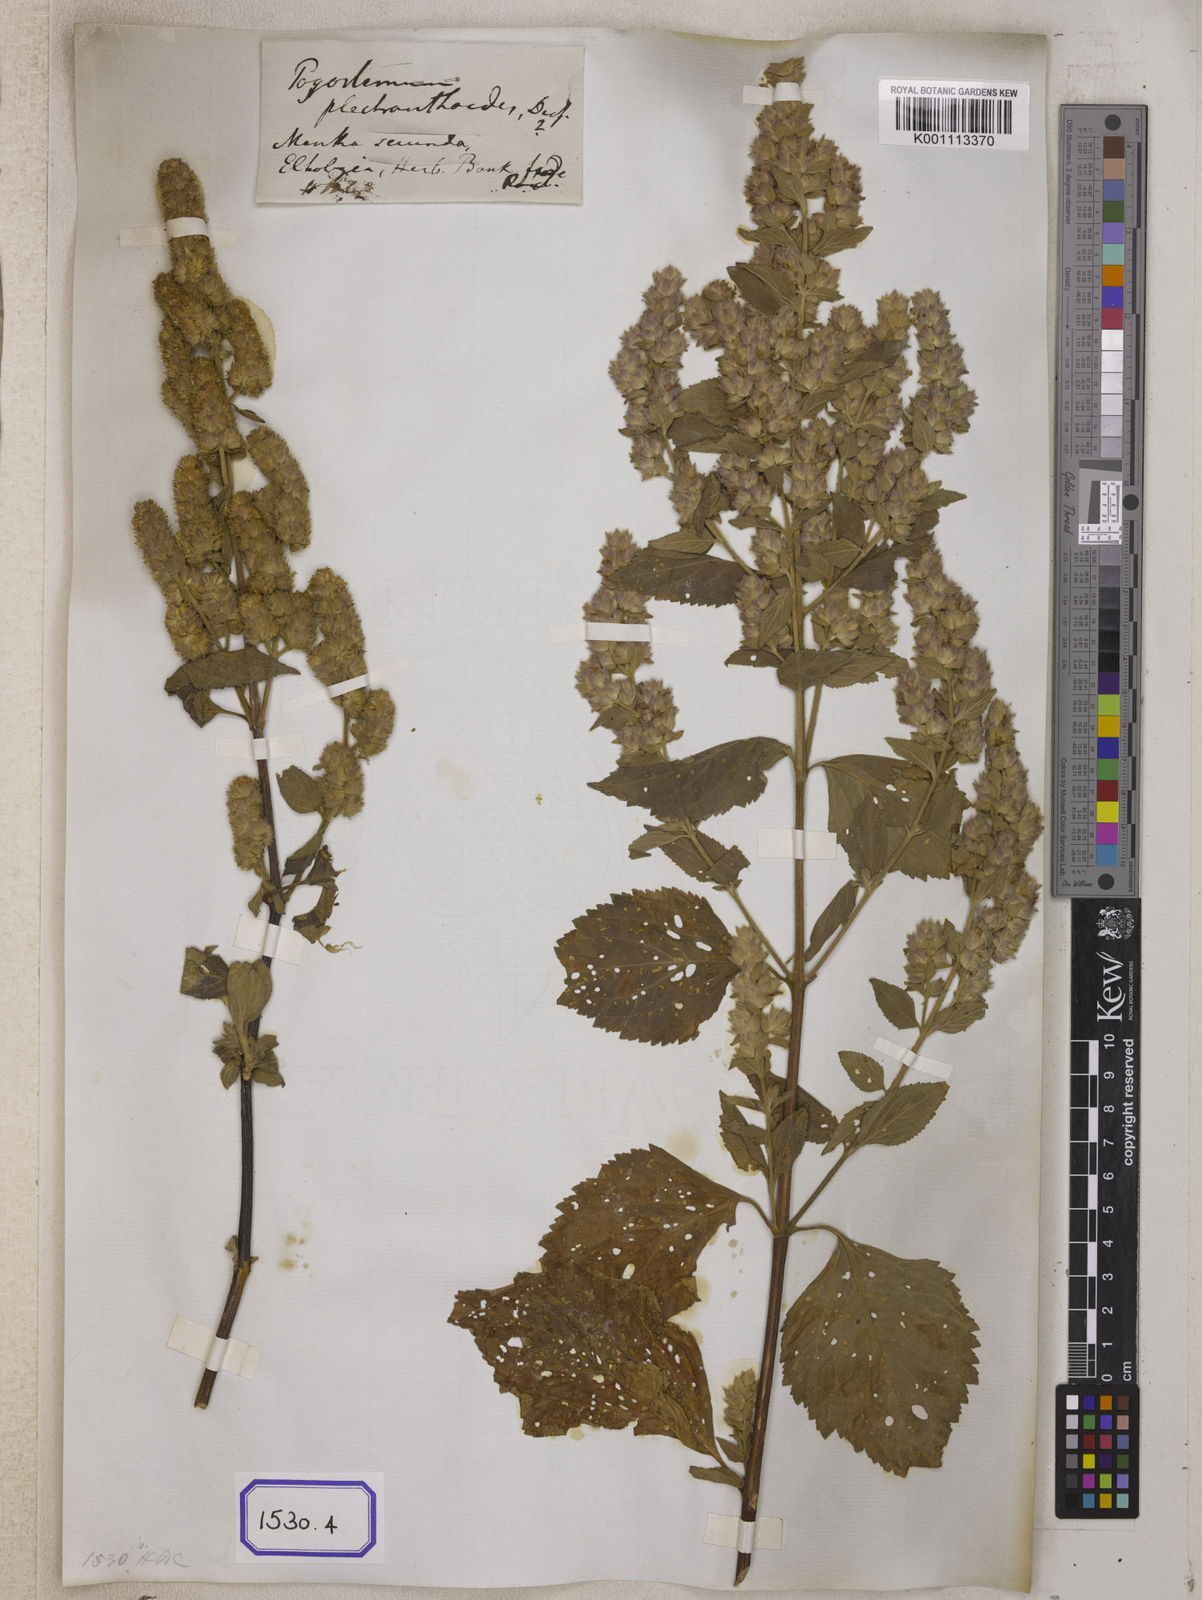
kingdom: Plantae
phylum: Tracheophyta
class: Magnoliopsida
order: Lamiales
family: Lamiaceae
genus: Pogostemon
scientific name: Pogostemon
